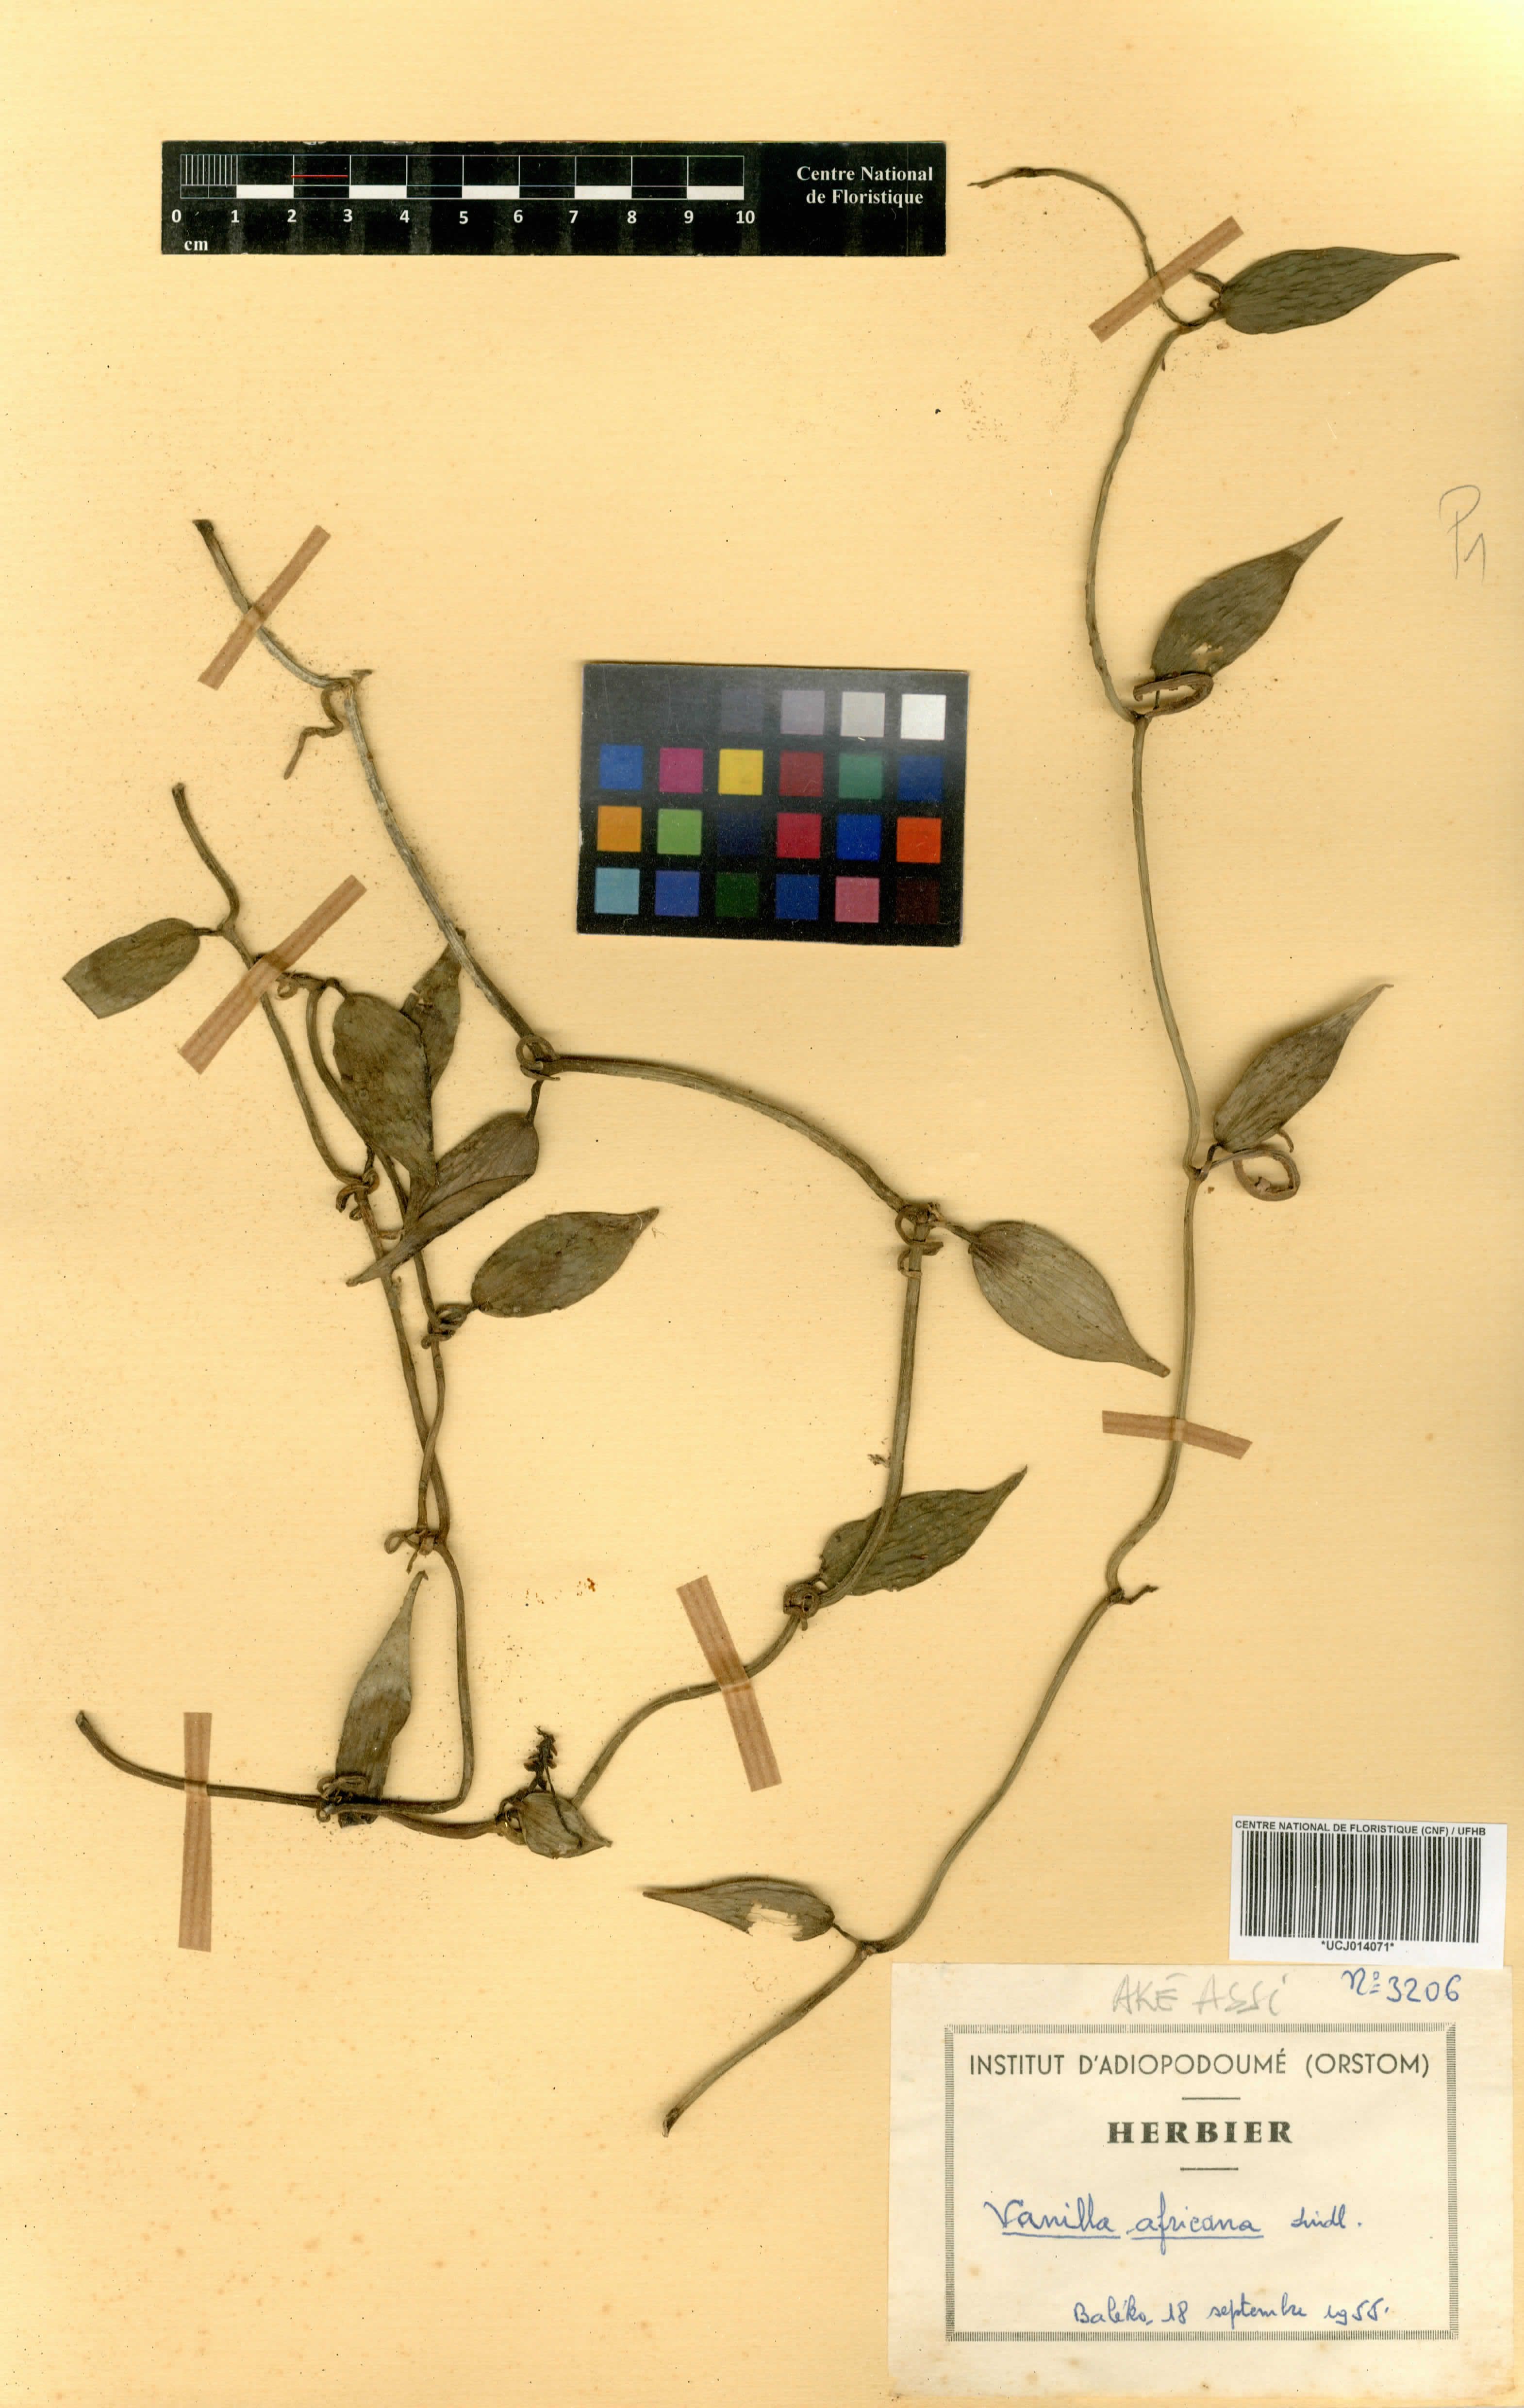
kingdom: Plantae
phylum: Tracheophyta
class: Liliopsida
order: Asparagales
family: Orchidaceae
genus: Vanilla
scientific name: Vanilla africana
